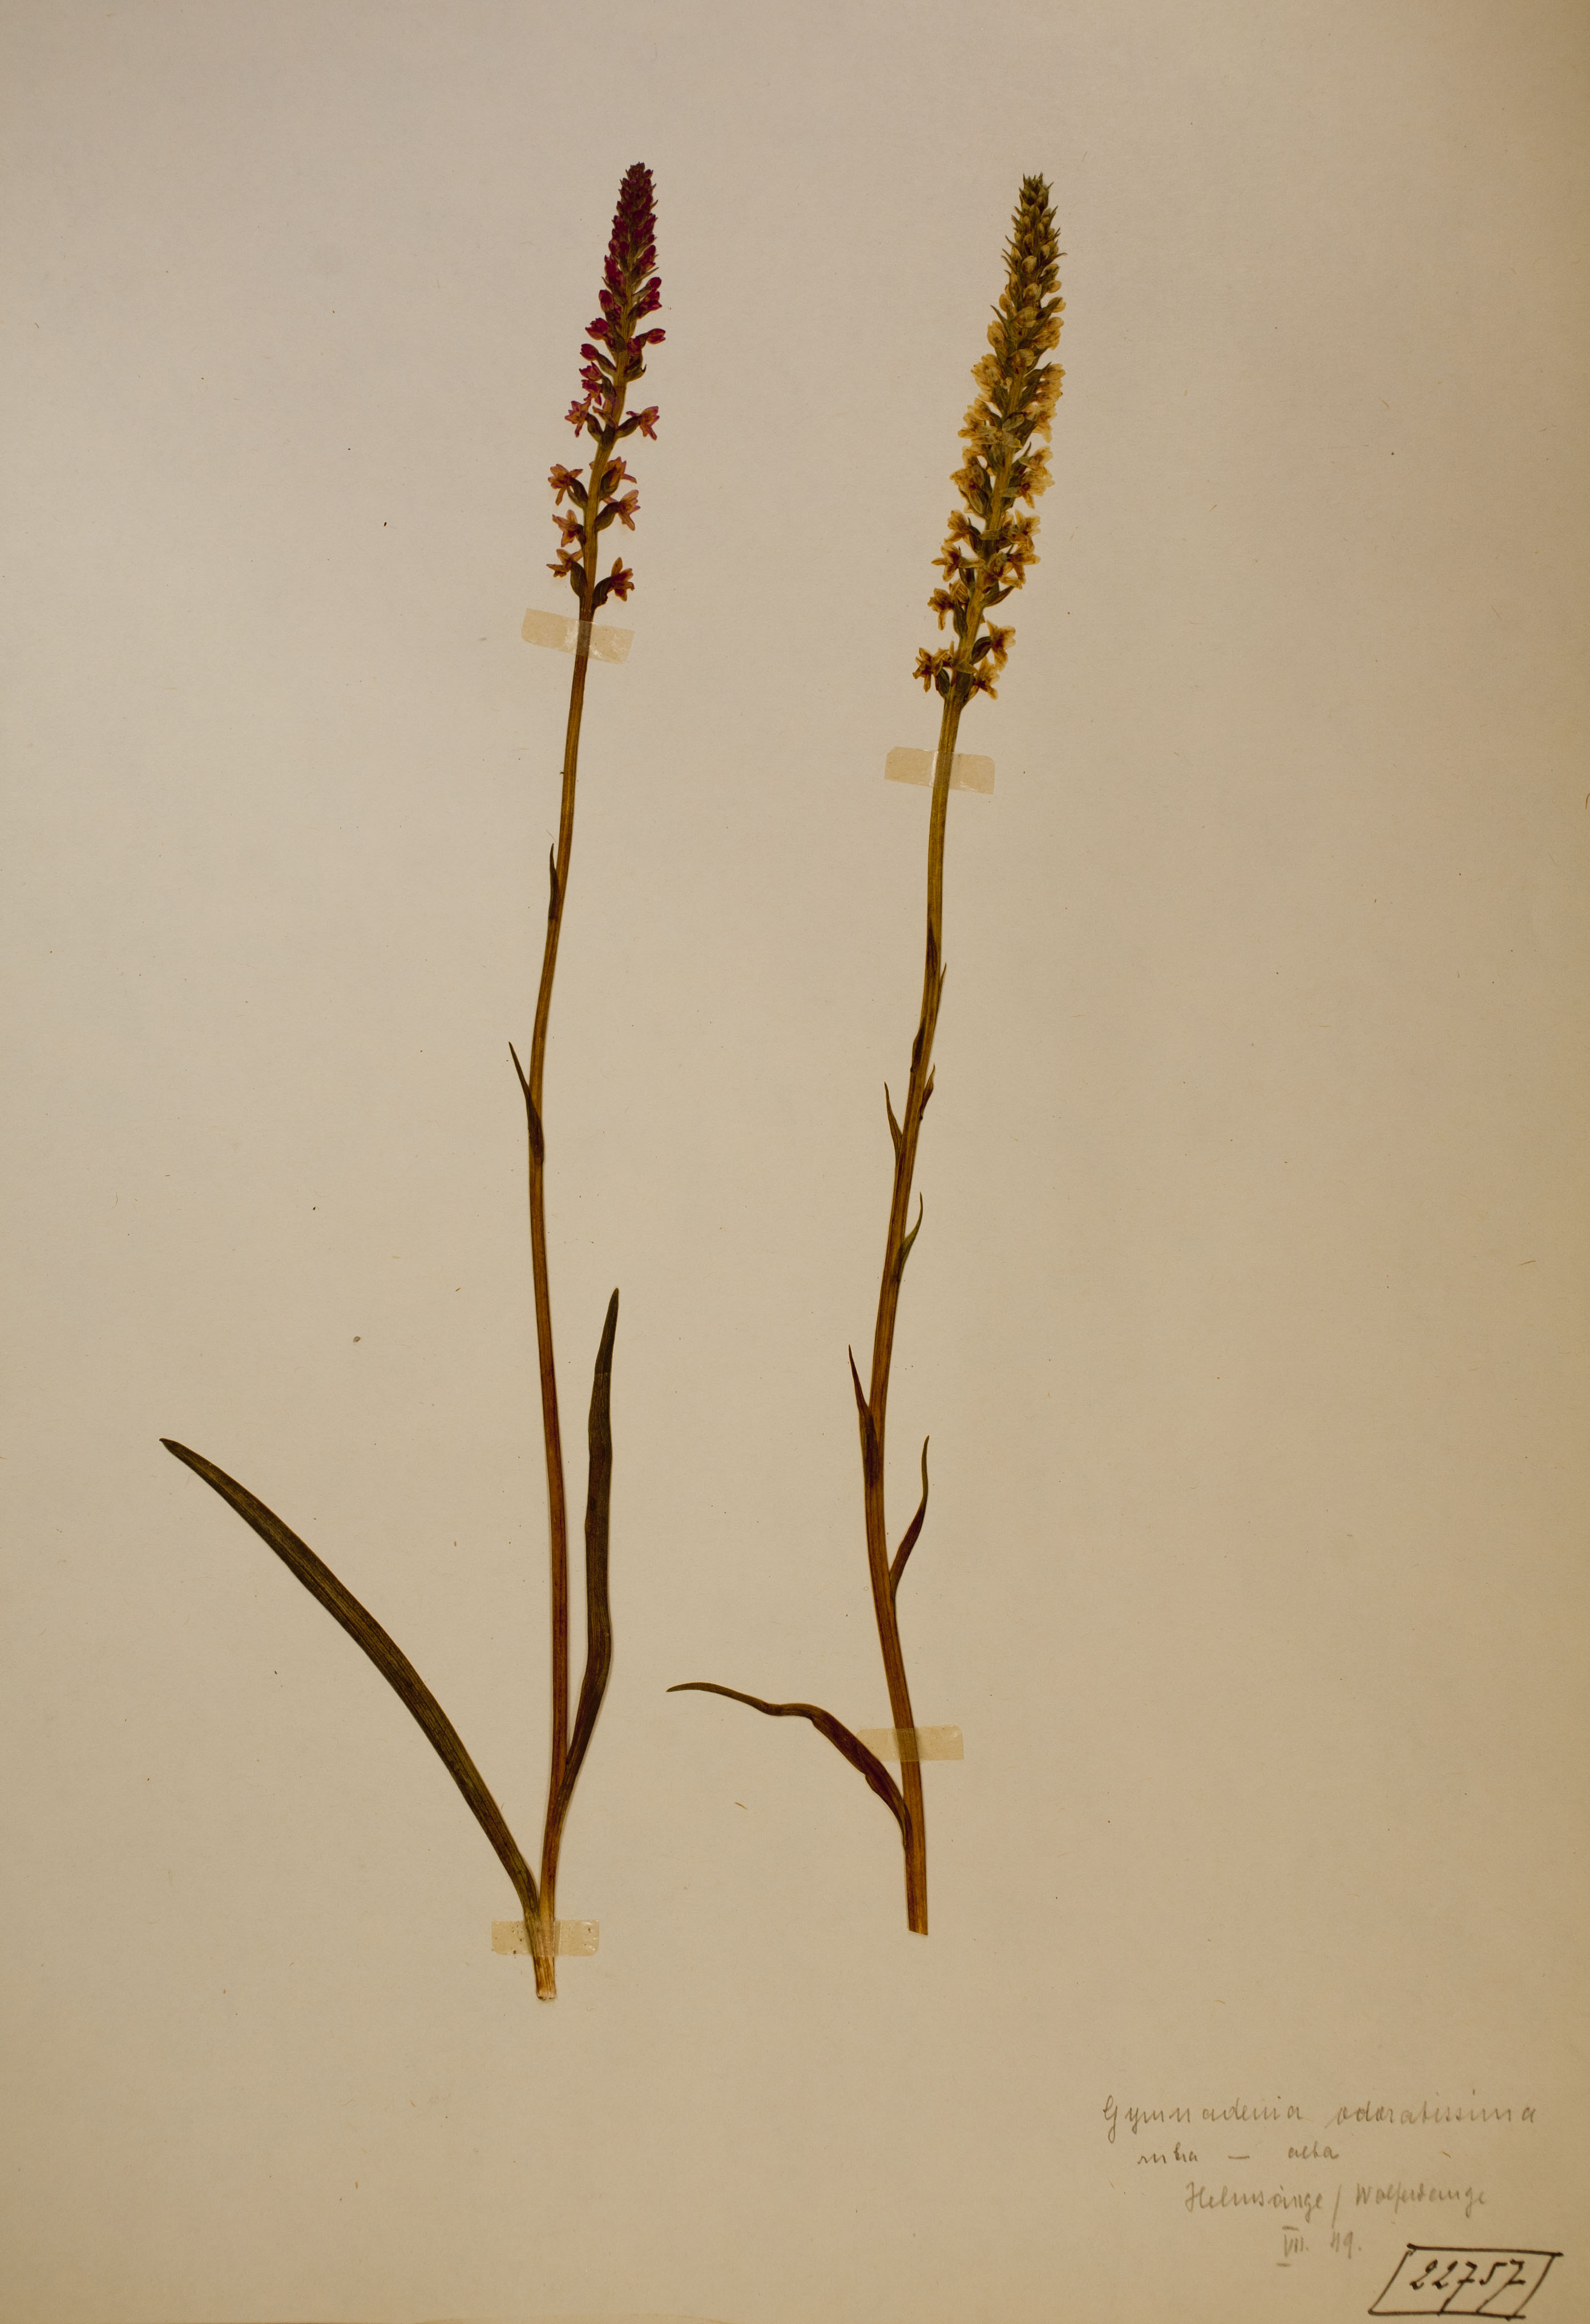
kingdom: Plantae
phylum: Tracheophyta
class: Liliopsida
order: Asparagales
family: Orchidaceae
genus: Gymnadenia
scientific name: Gymnadenia odoratissima
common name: Scented gymnadenia
